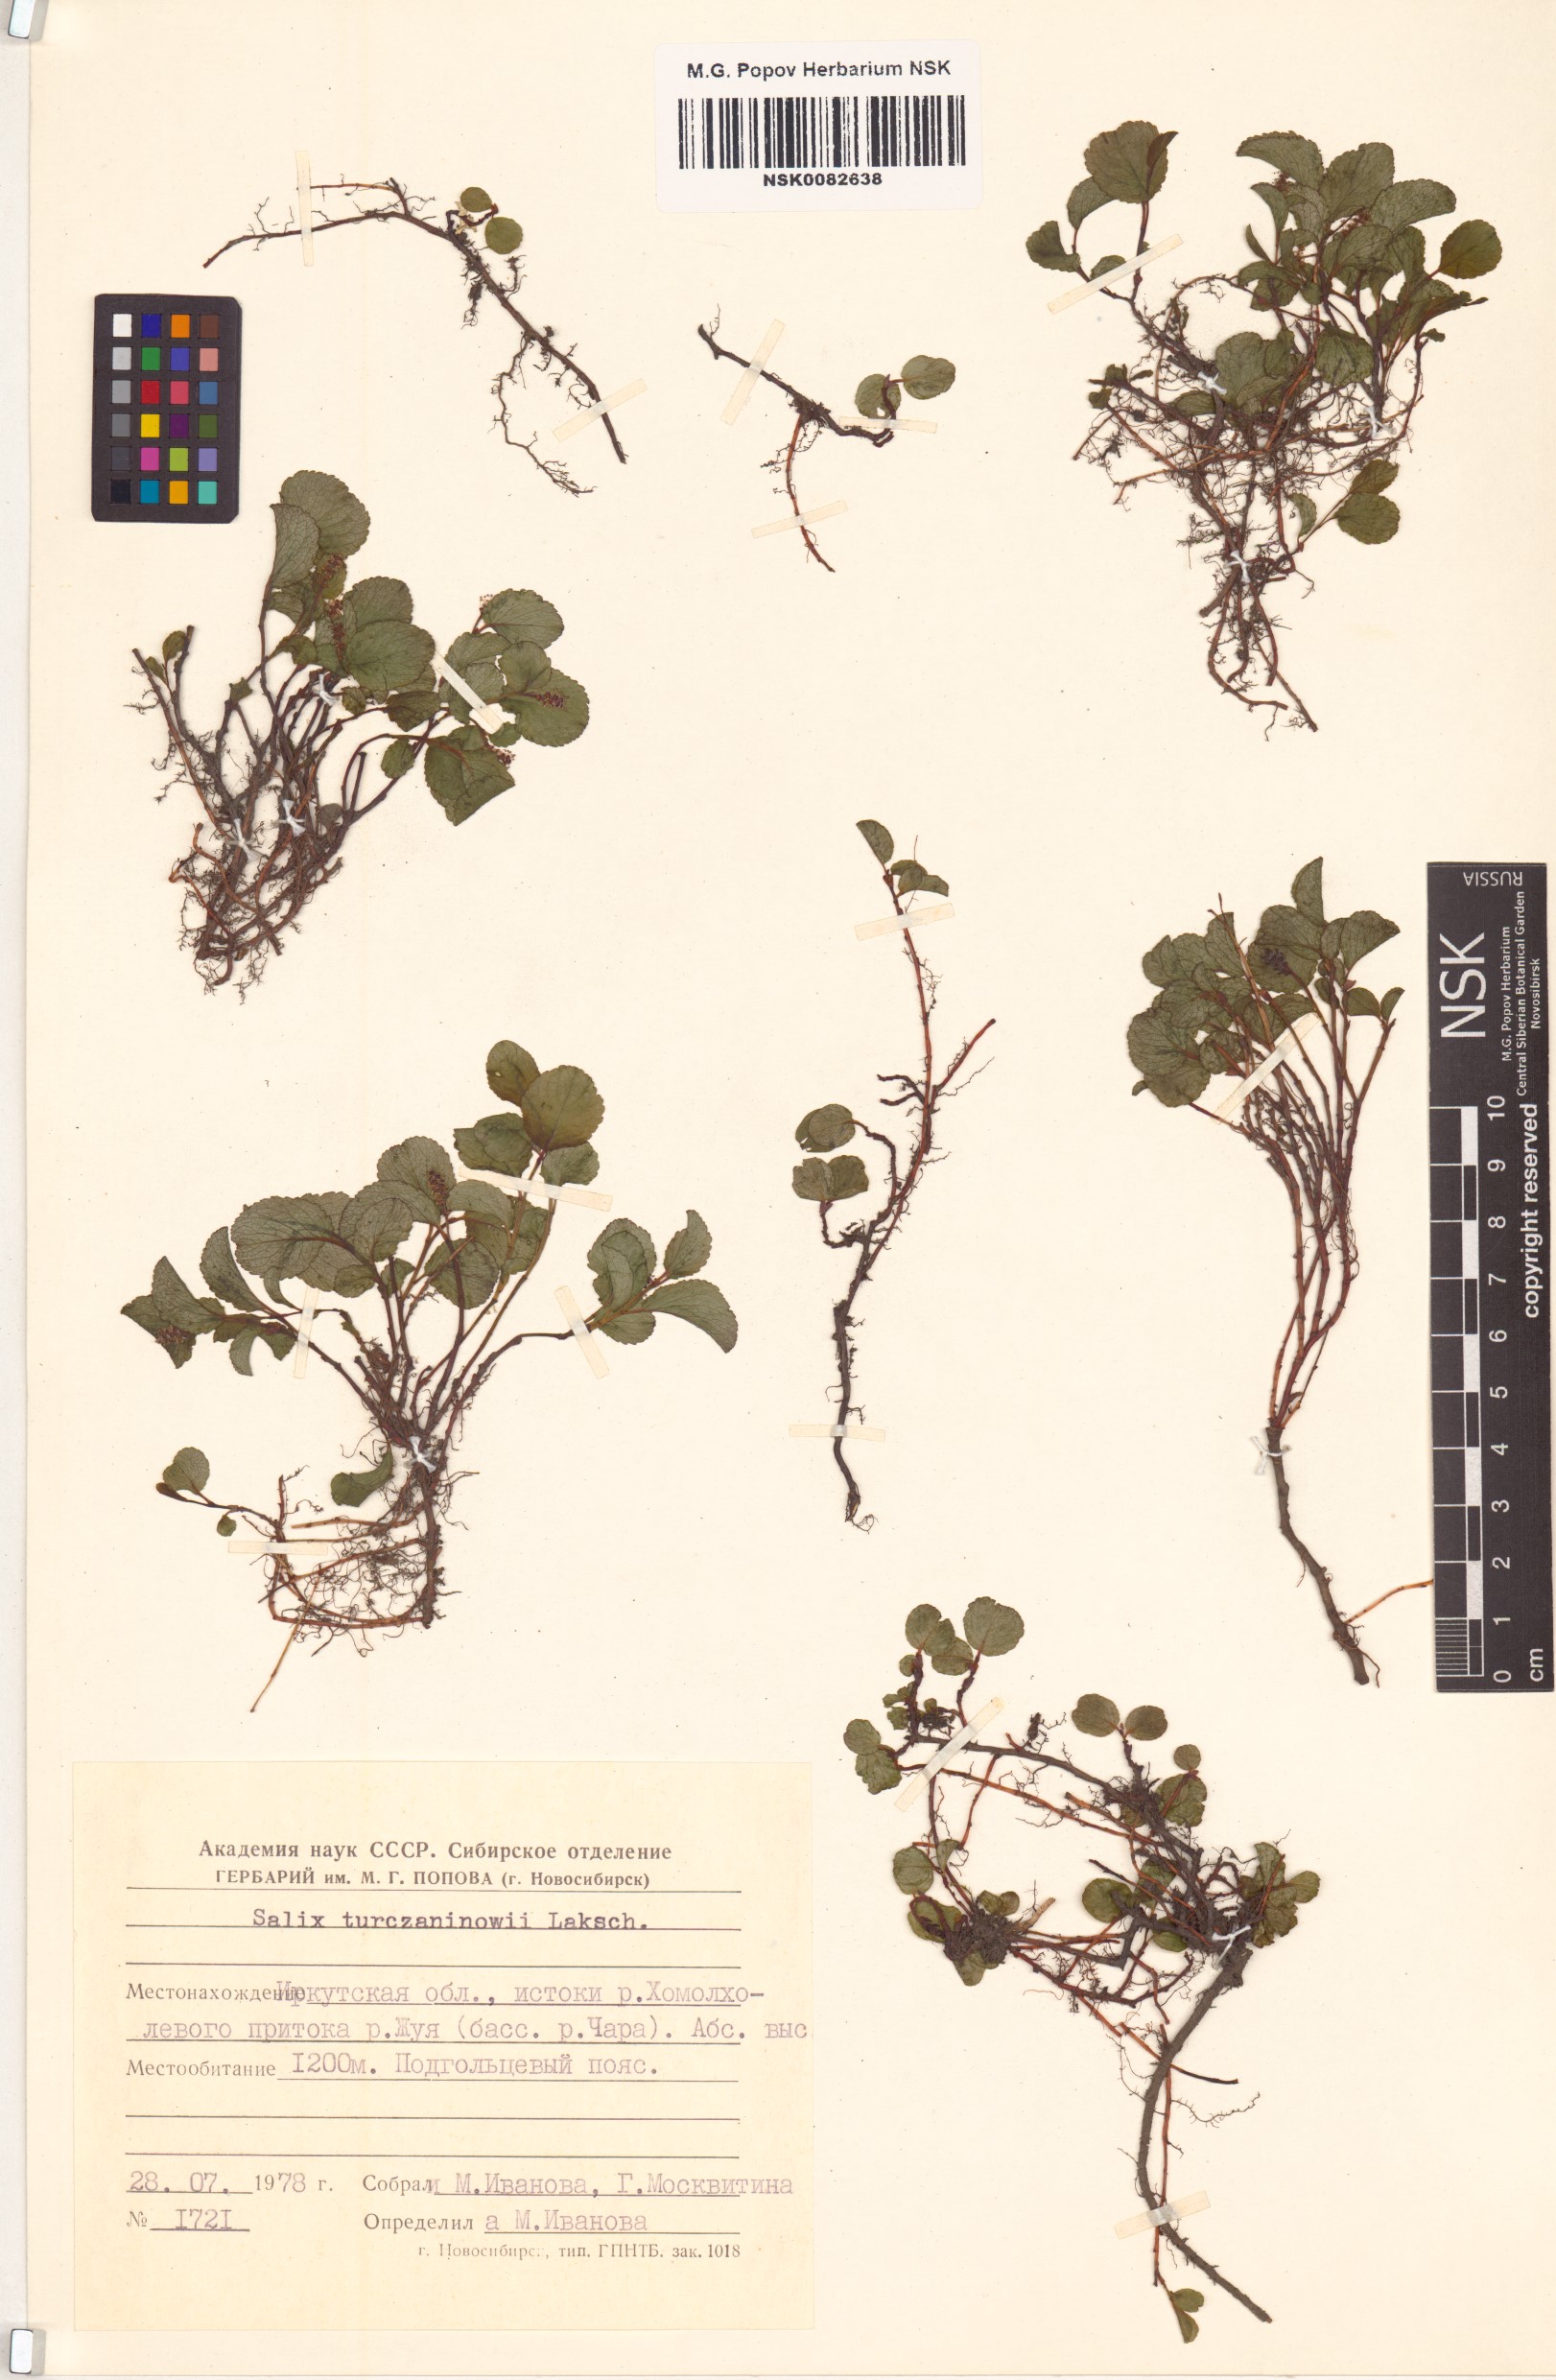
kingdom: Plantae
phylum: Tracheophyta
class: Magnoliopsida
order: Malpighiales
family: Salicaceae
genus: Salix
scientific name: Salix turczaninowii
